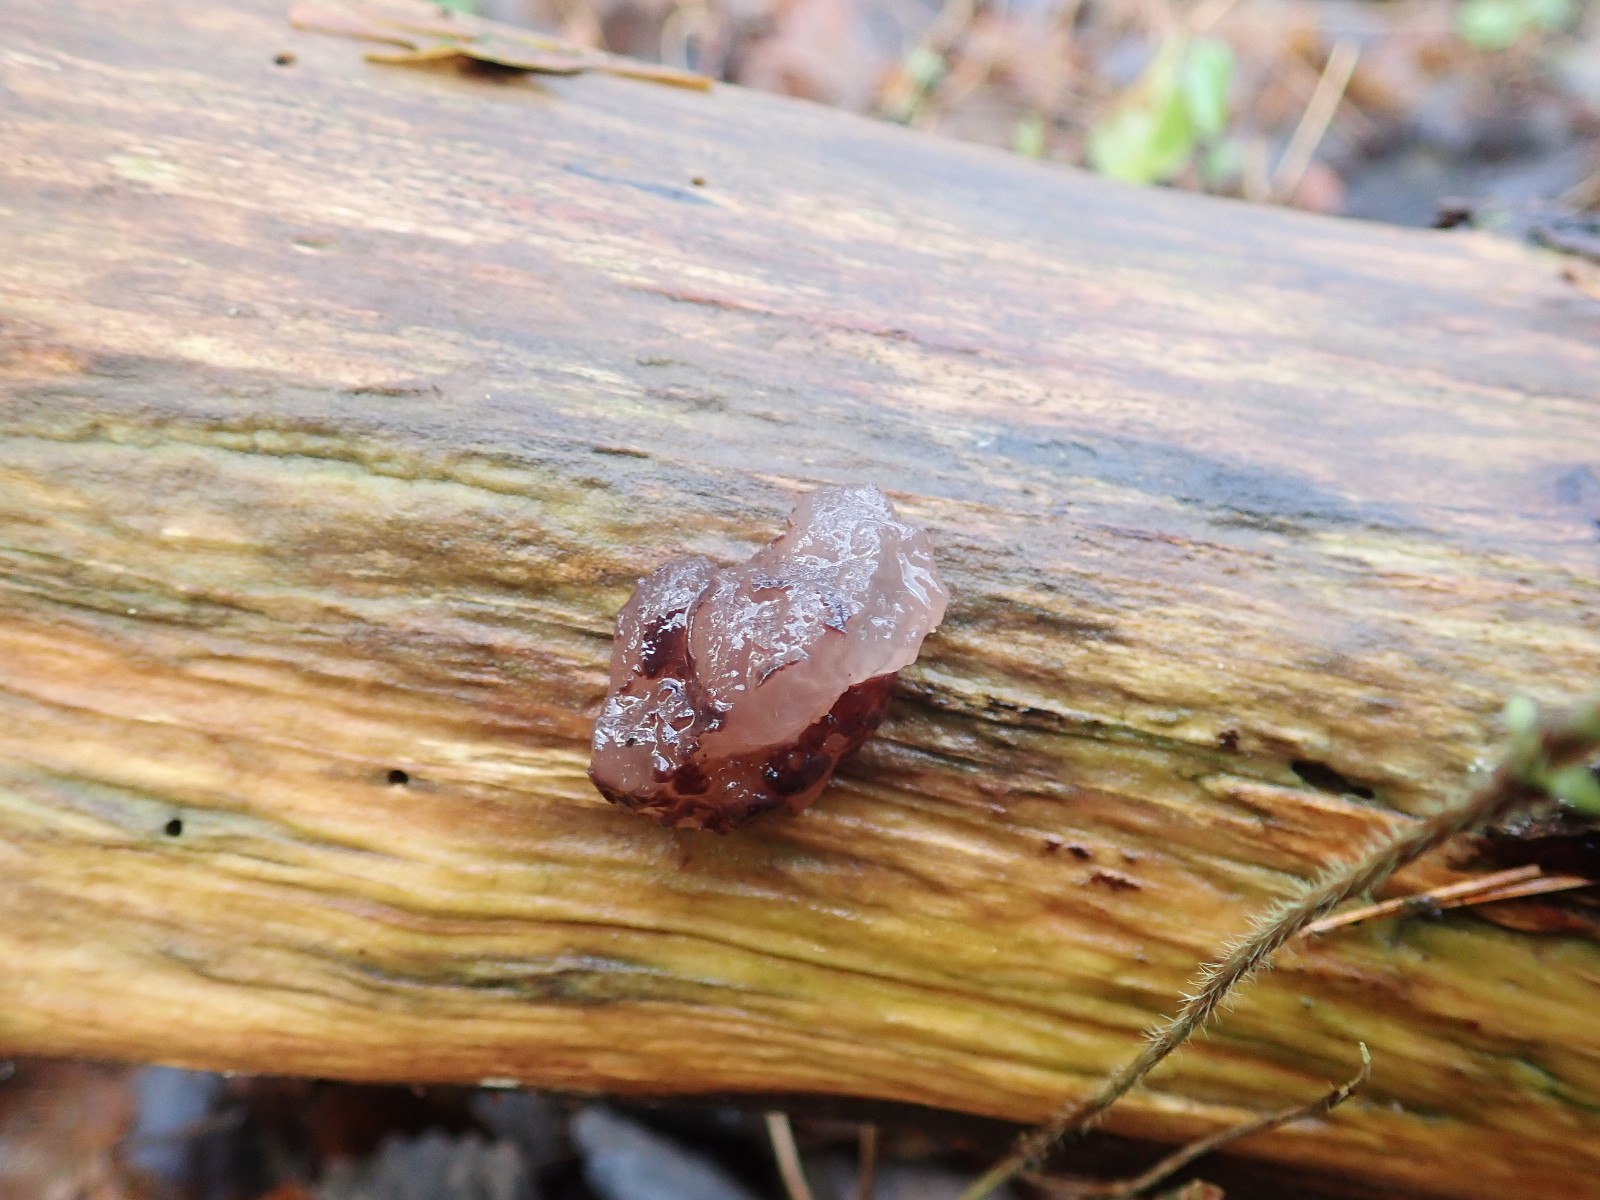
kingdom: Fungi
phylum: Ascomycota
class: Leotiomycetes
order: Helotiales
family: Gelatinodiscaceae
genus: Neobulgaria
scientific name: Neobulgaria pura
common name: bleg bævreskive
